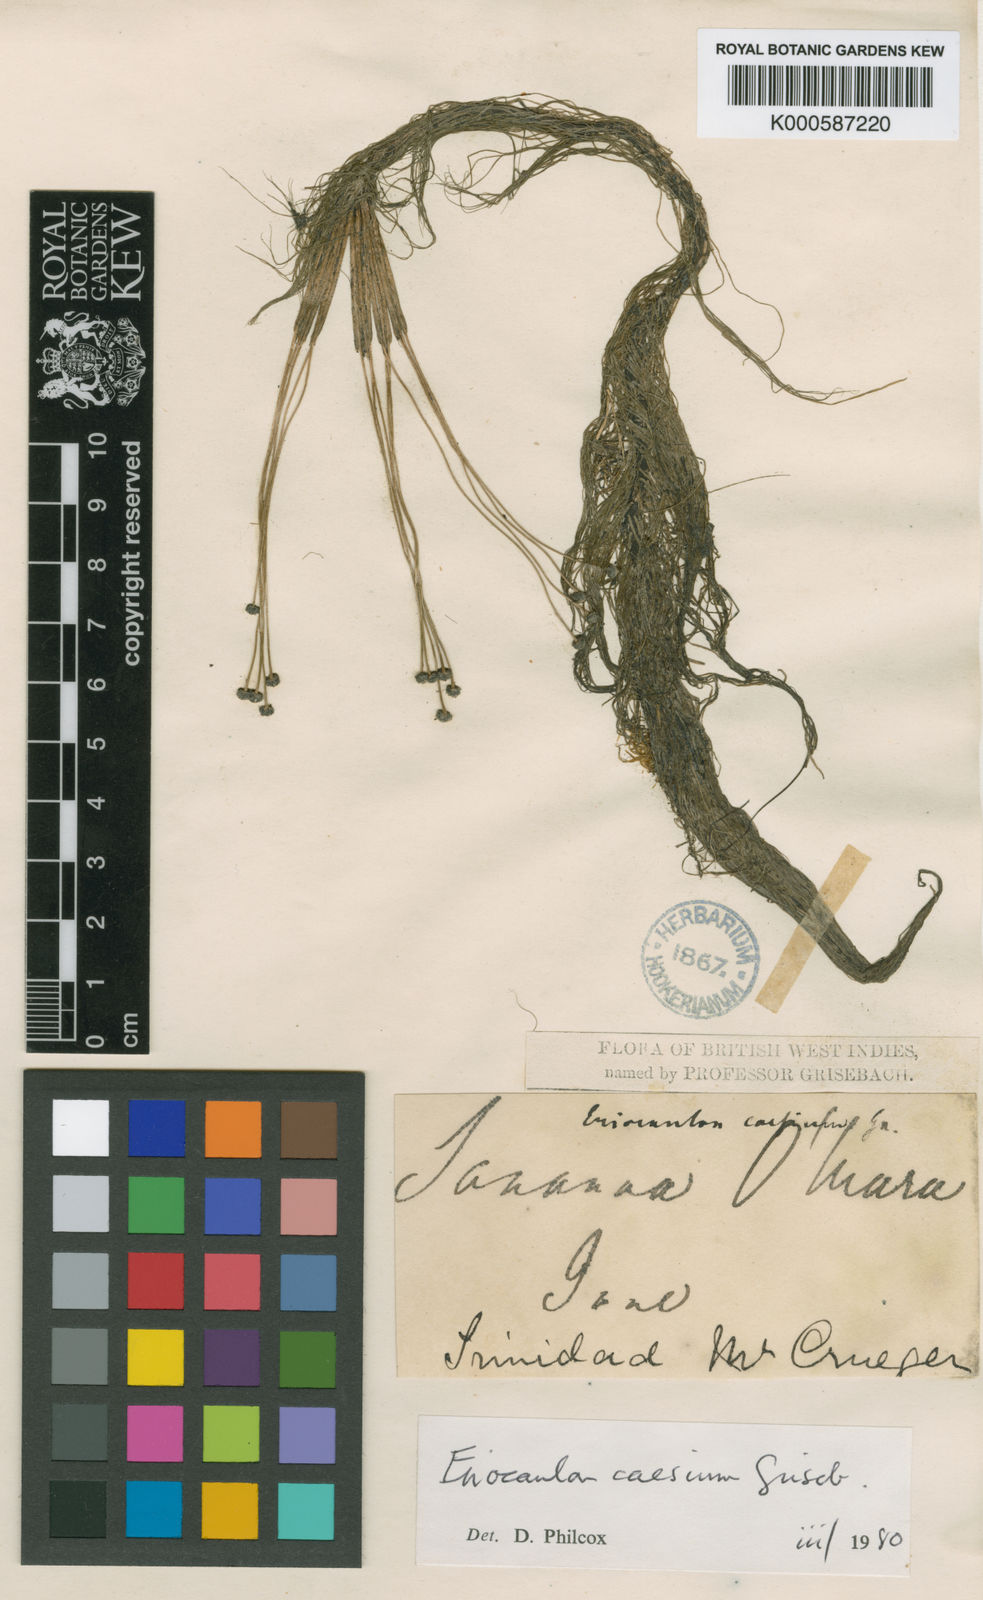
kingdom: Plantae
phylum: Tracheophyta
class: Liliopsida
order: Poales
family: Eriocaulaceae
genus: Eriocaulon
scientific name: Eriocaulon caesium
